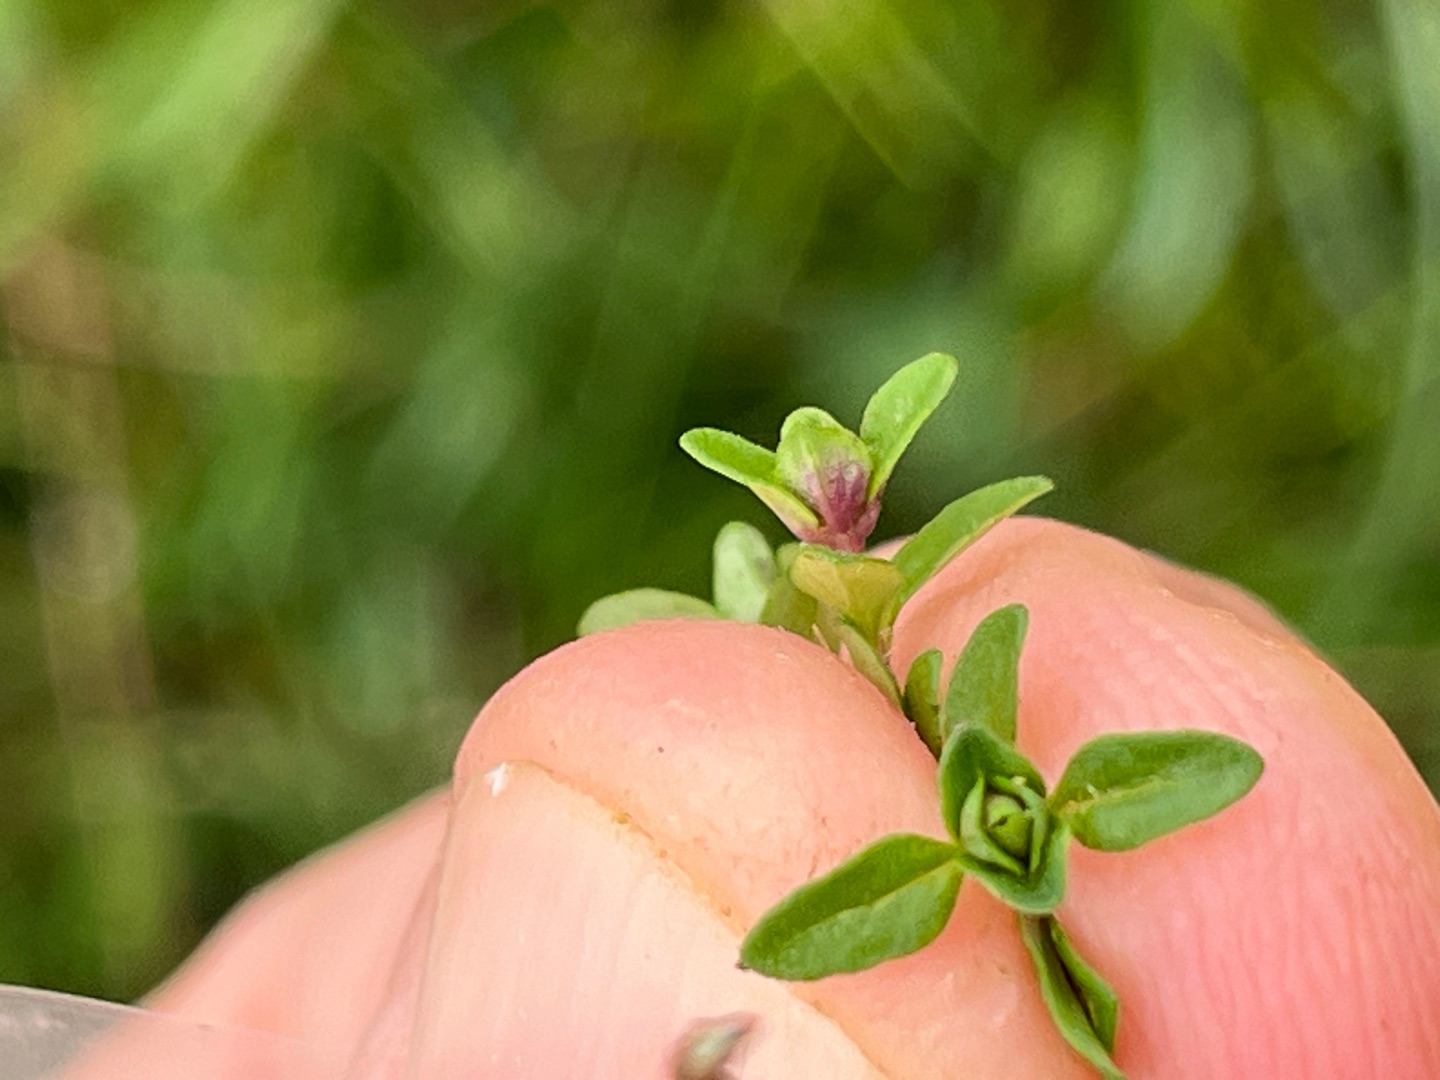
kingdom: Animalia
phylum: Arthropoda
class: Insecta
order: Diptera
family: Cecidomyiidae
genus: Janetiella
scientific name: Janetiella thymi
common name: Timianbladgalmyg
